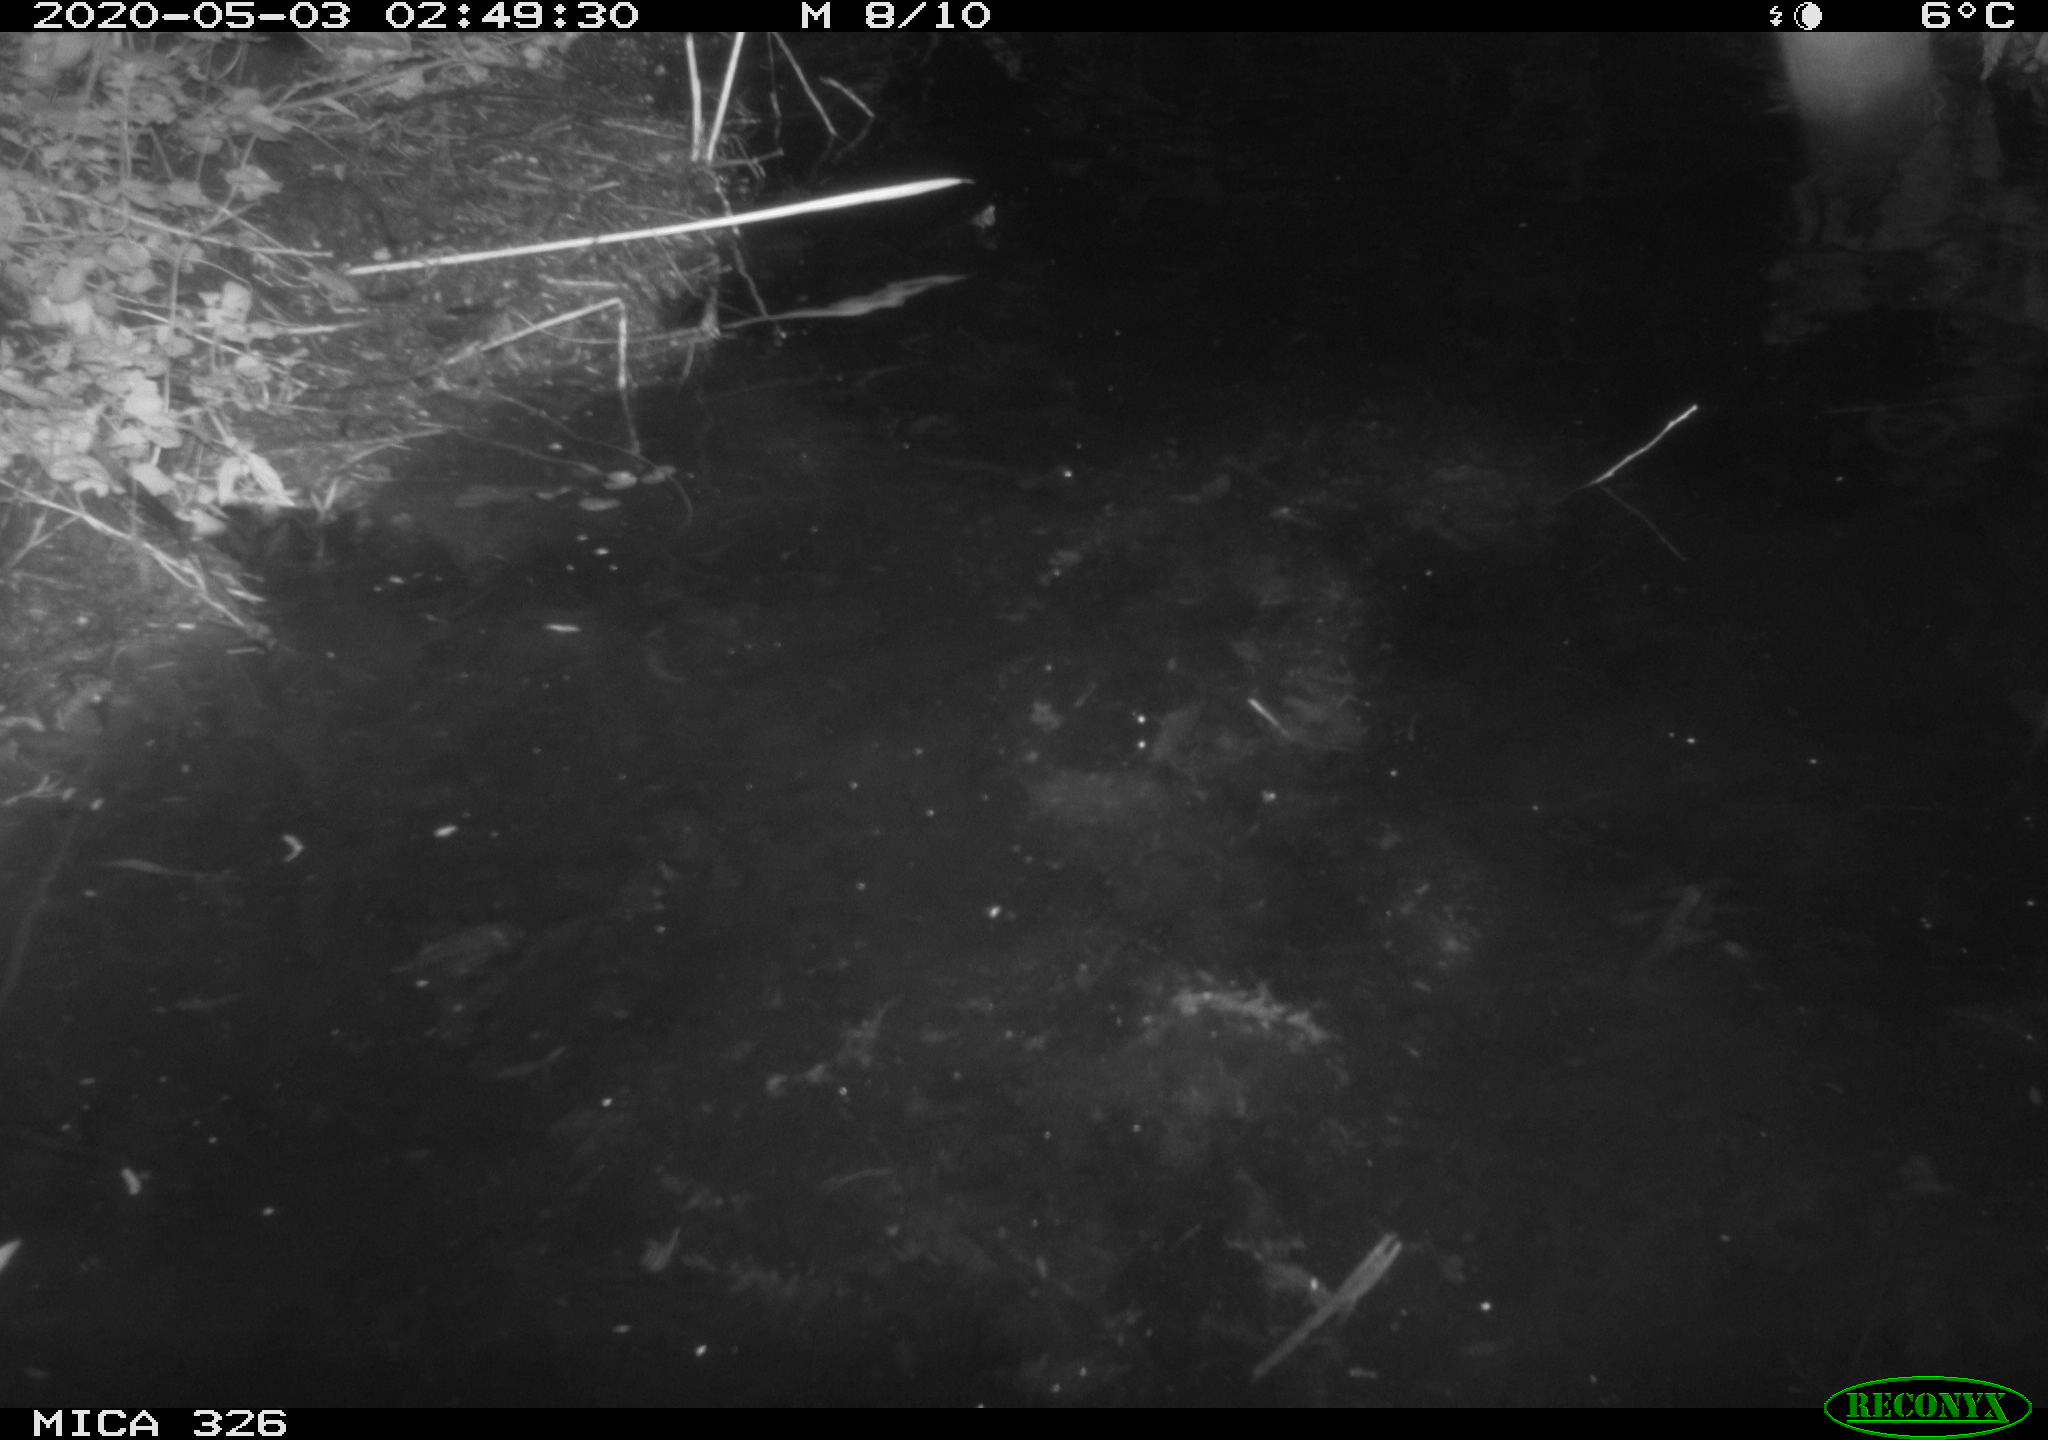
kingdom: Animalia
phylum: Chordata
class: Mammalia
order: Rodentia
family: Myocastoridae
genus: Myocastor
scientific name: Myocastor coypus
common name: Coypu
